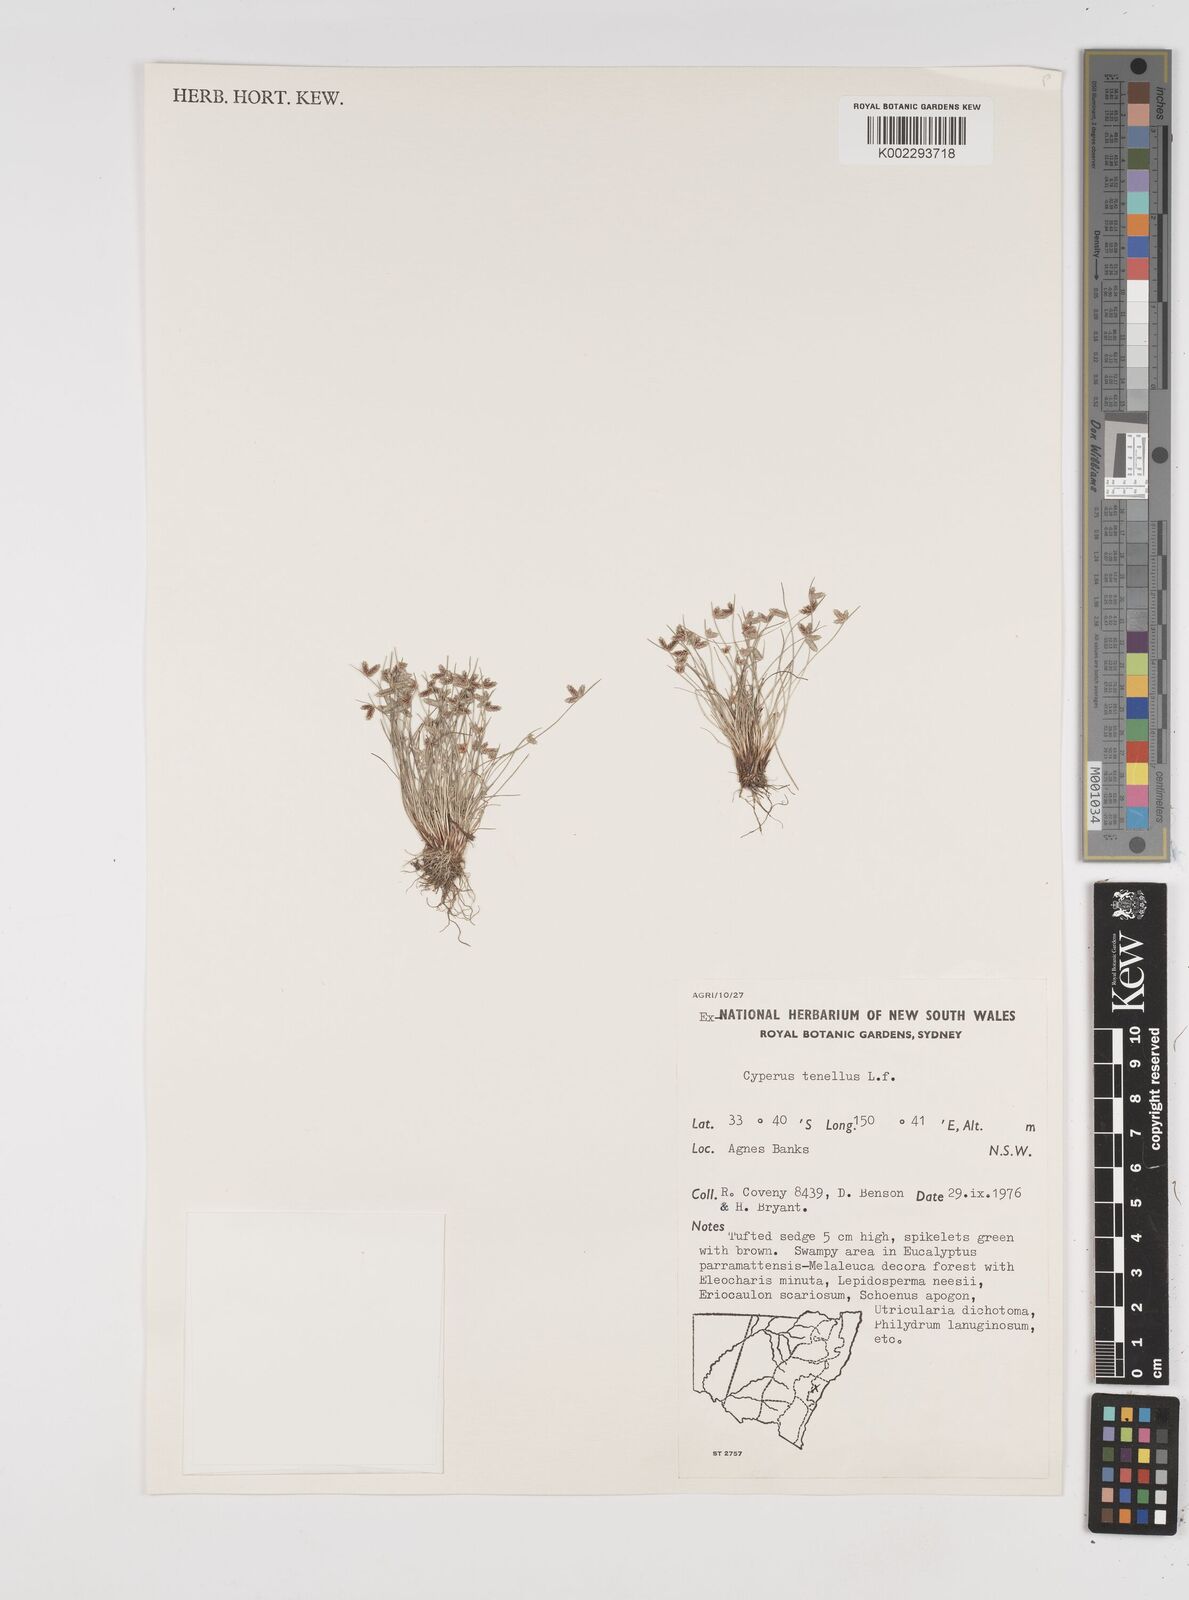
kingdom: Plantae
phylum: Tracheophyta
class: Liliopsida
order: Poales
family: Cyperaceae
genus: Isolepis
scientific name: Isolepis levynsiana
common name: Sedge
